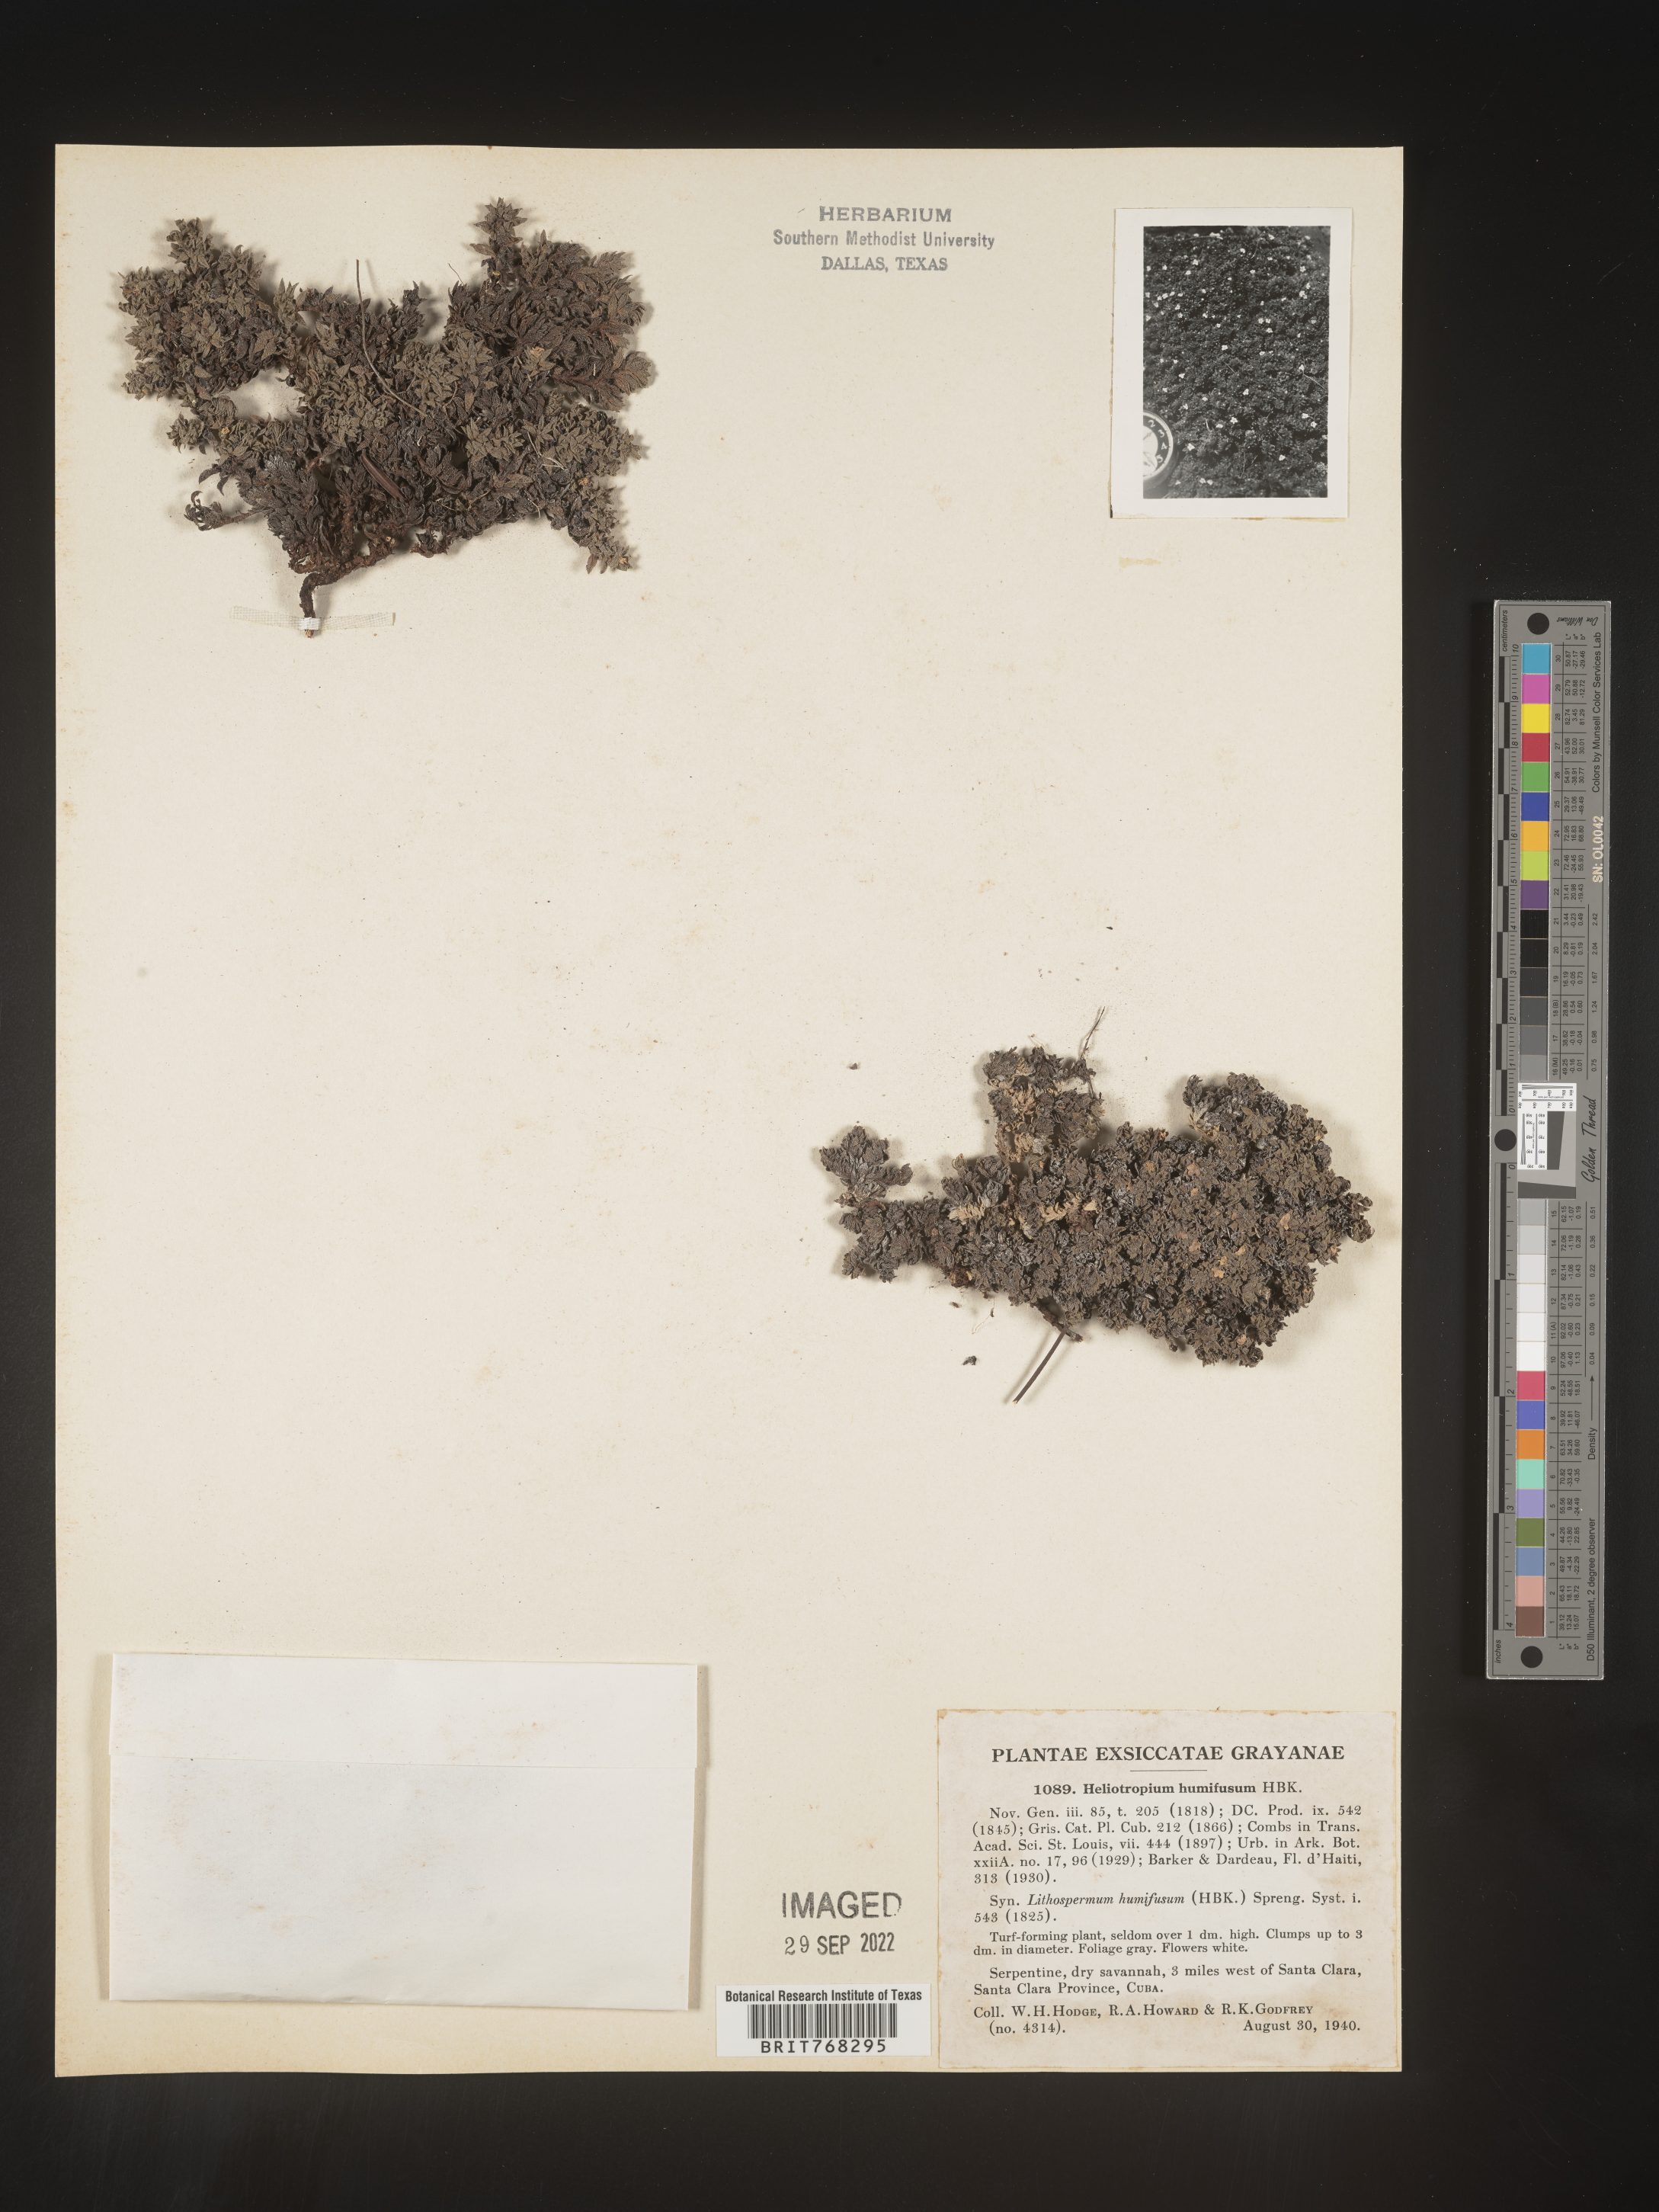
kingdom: Plantae
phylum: Tracheophyta
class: Magnoliopsida
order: Boraginales
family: Heliotropiaceae
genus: Heliotropium
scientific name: Heliotropium
